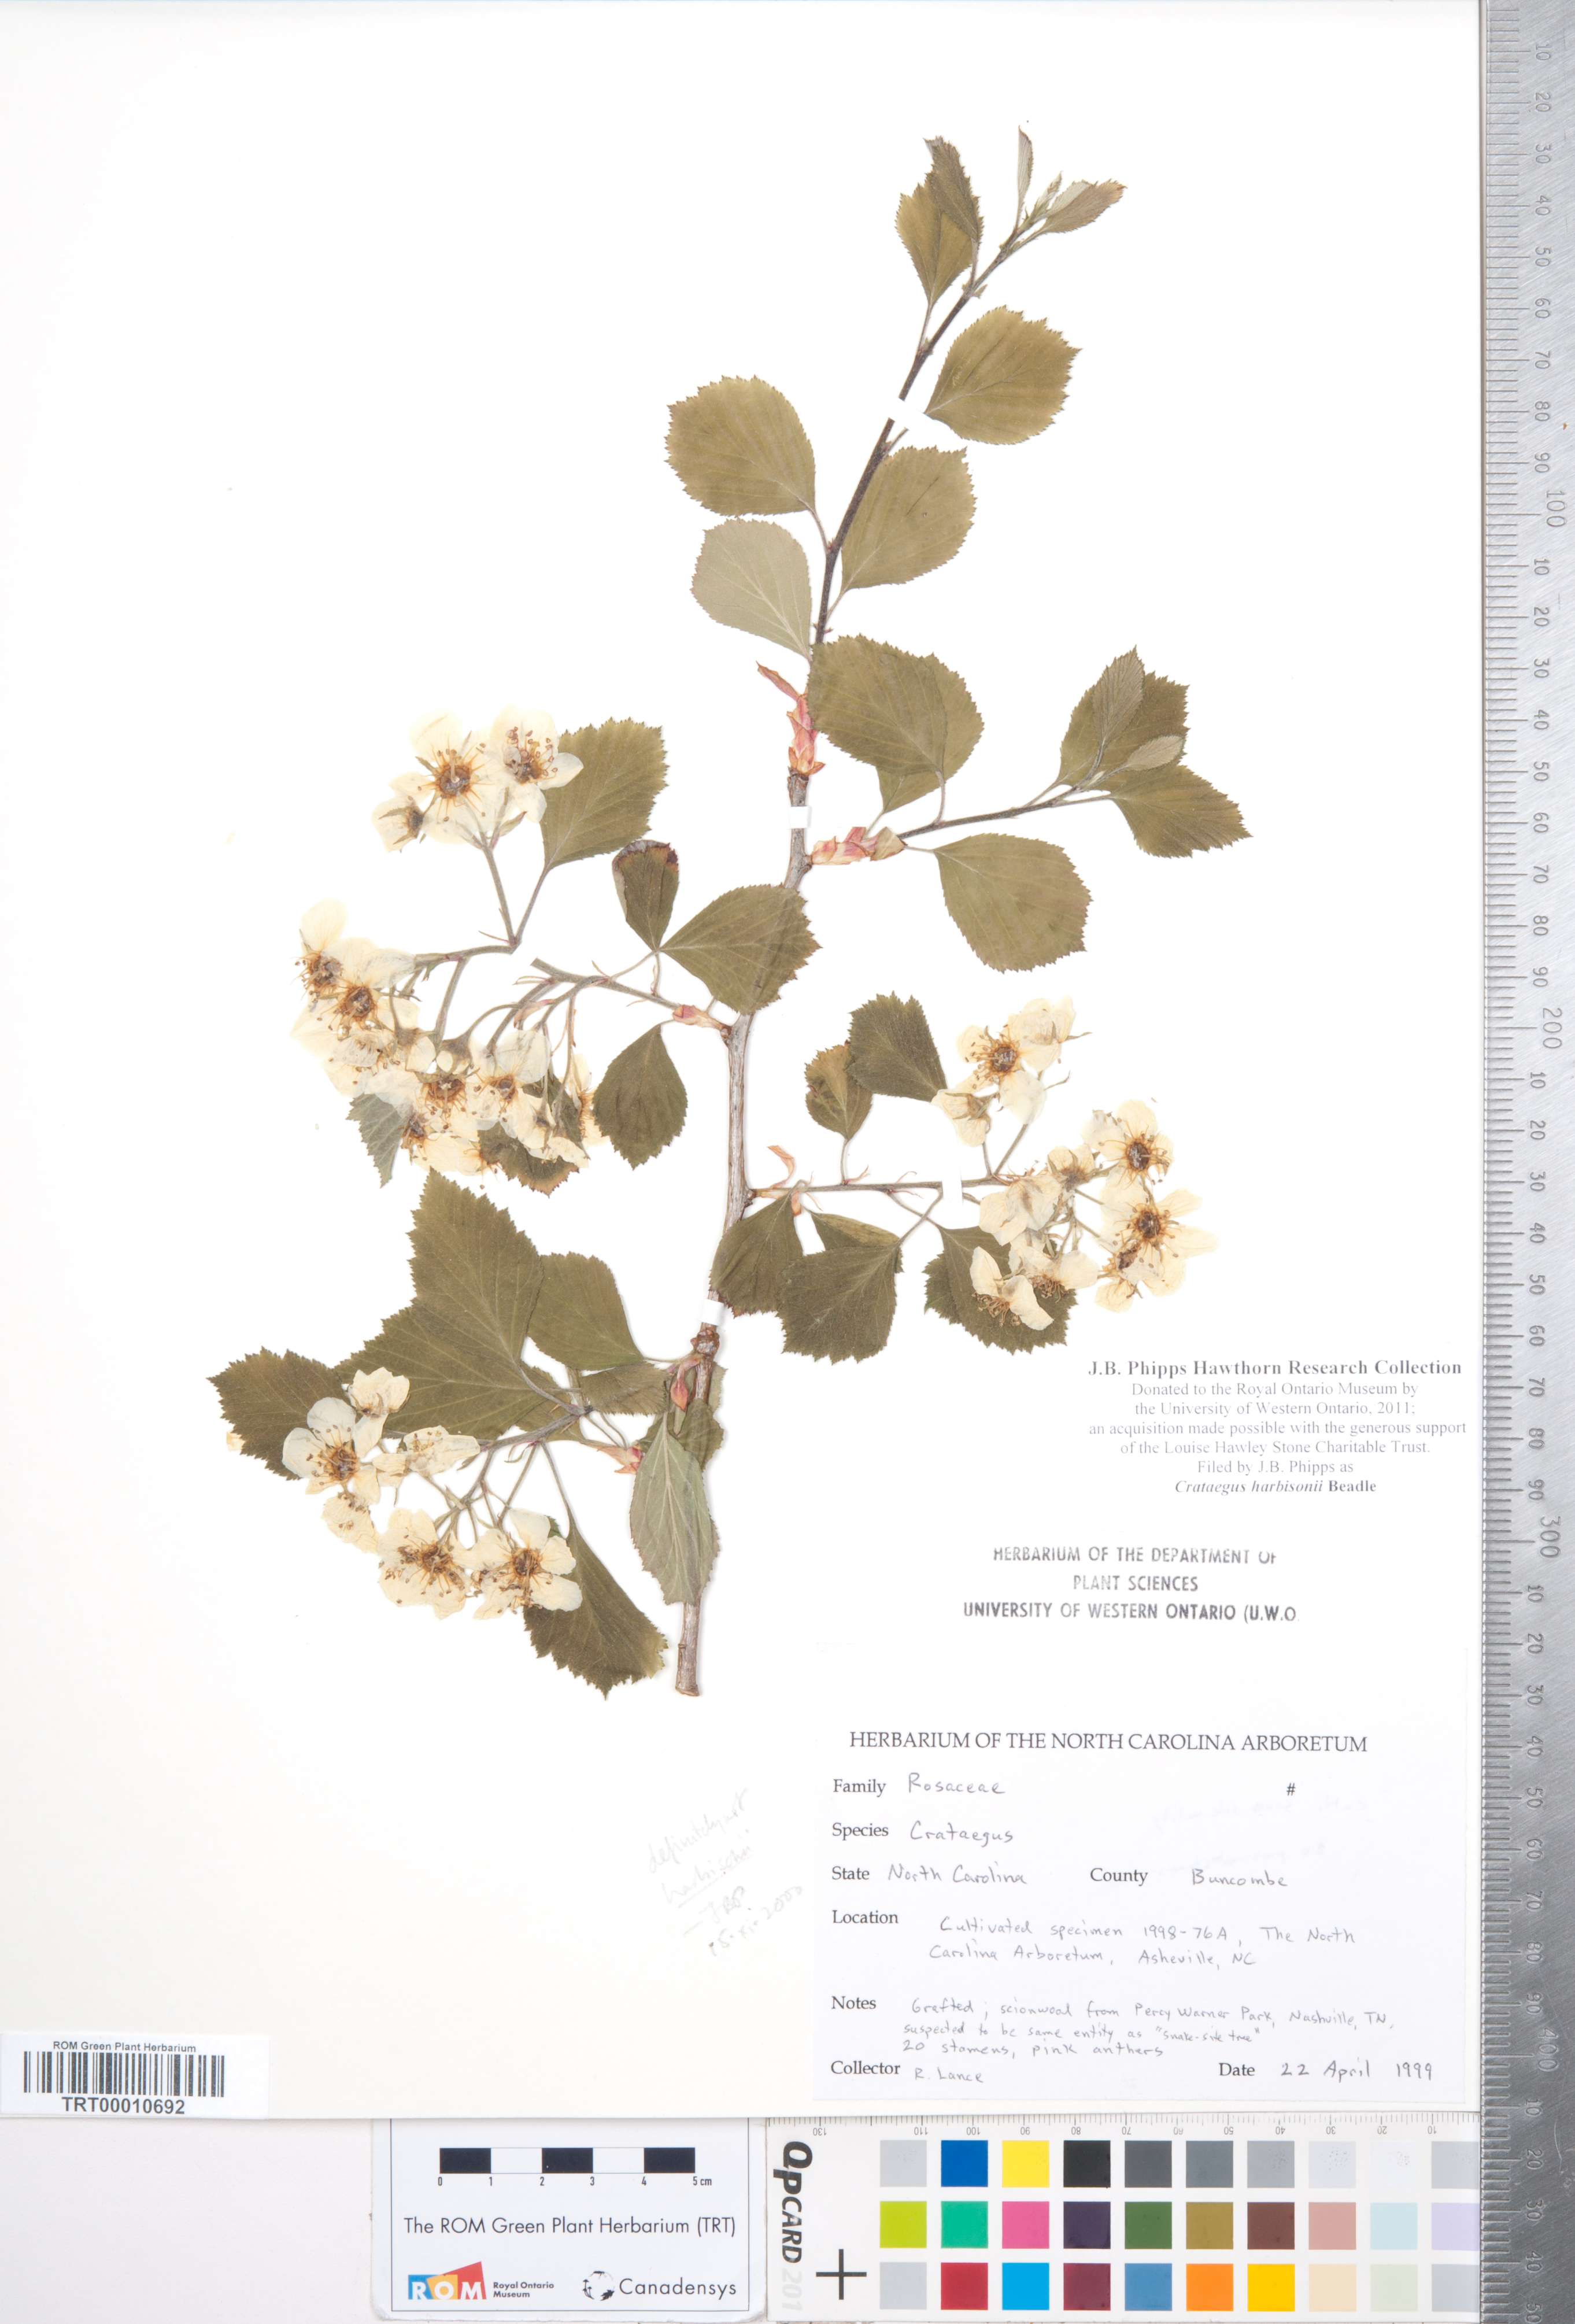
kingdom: Plantae
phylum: Tracheophyta
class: Magnoliopsida
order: Rosales
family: Rosaceae
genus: Crataegus
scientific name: Crataegus harbisonii
